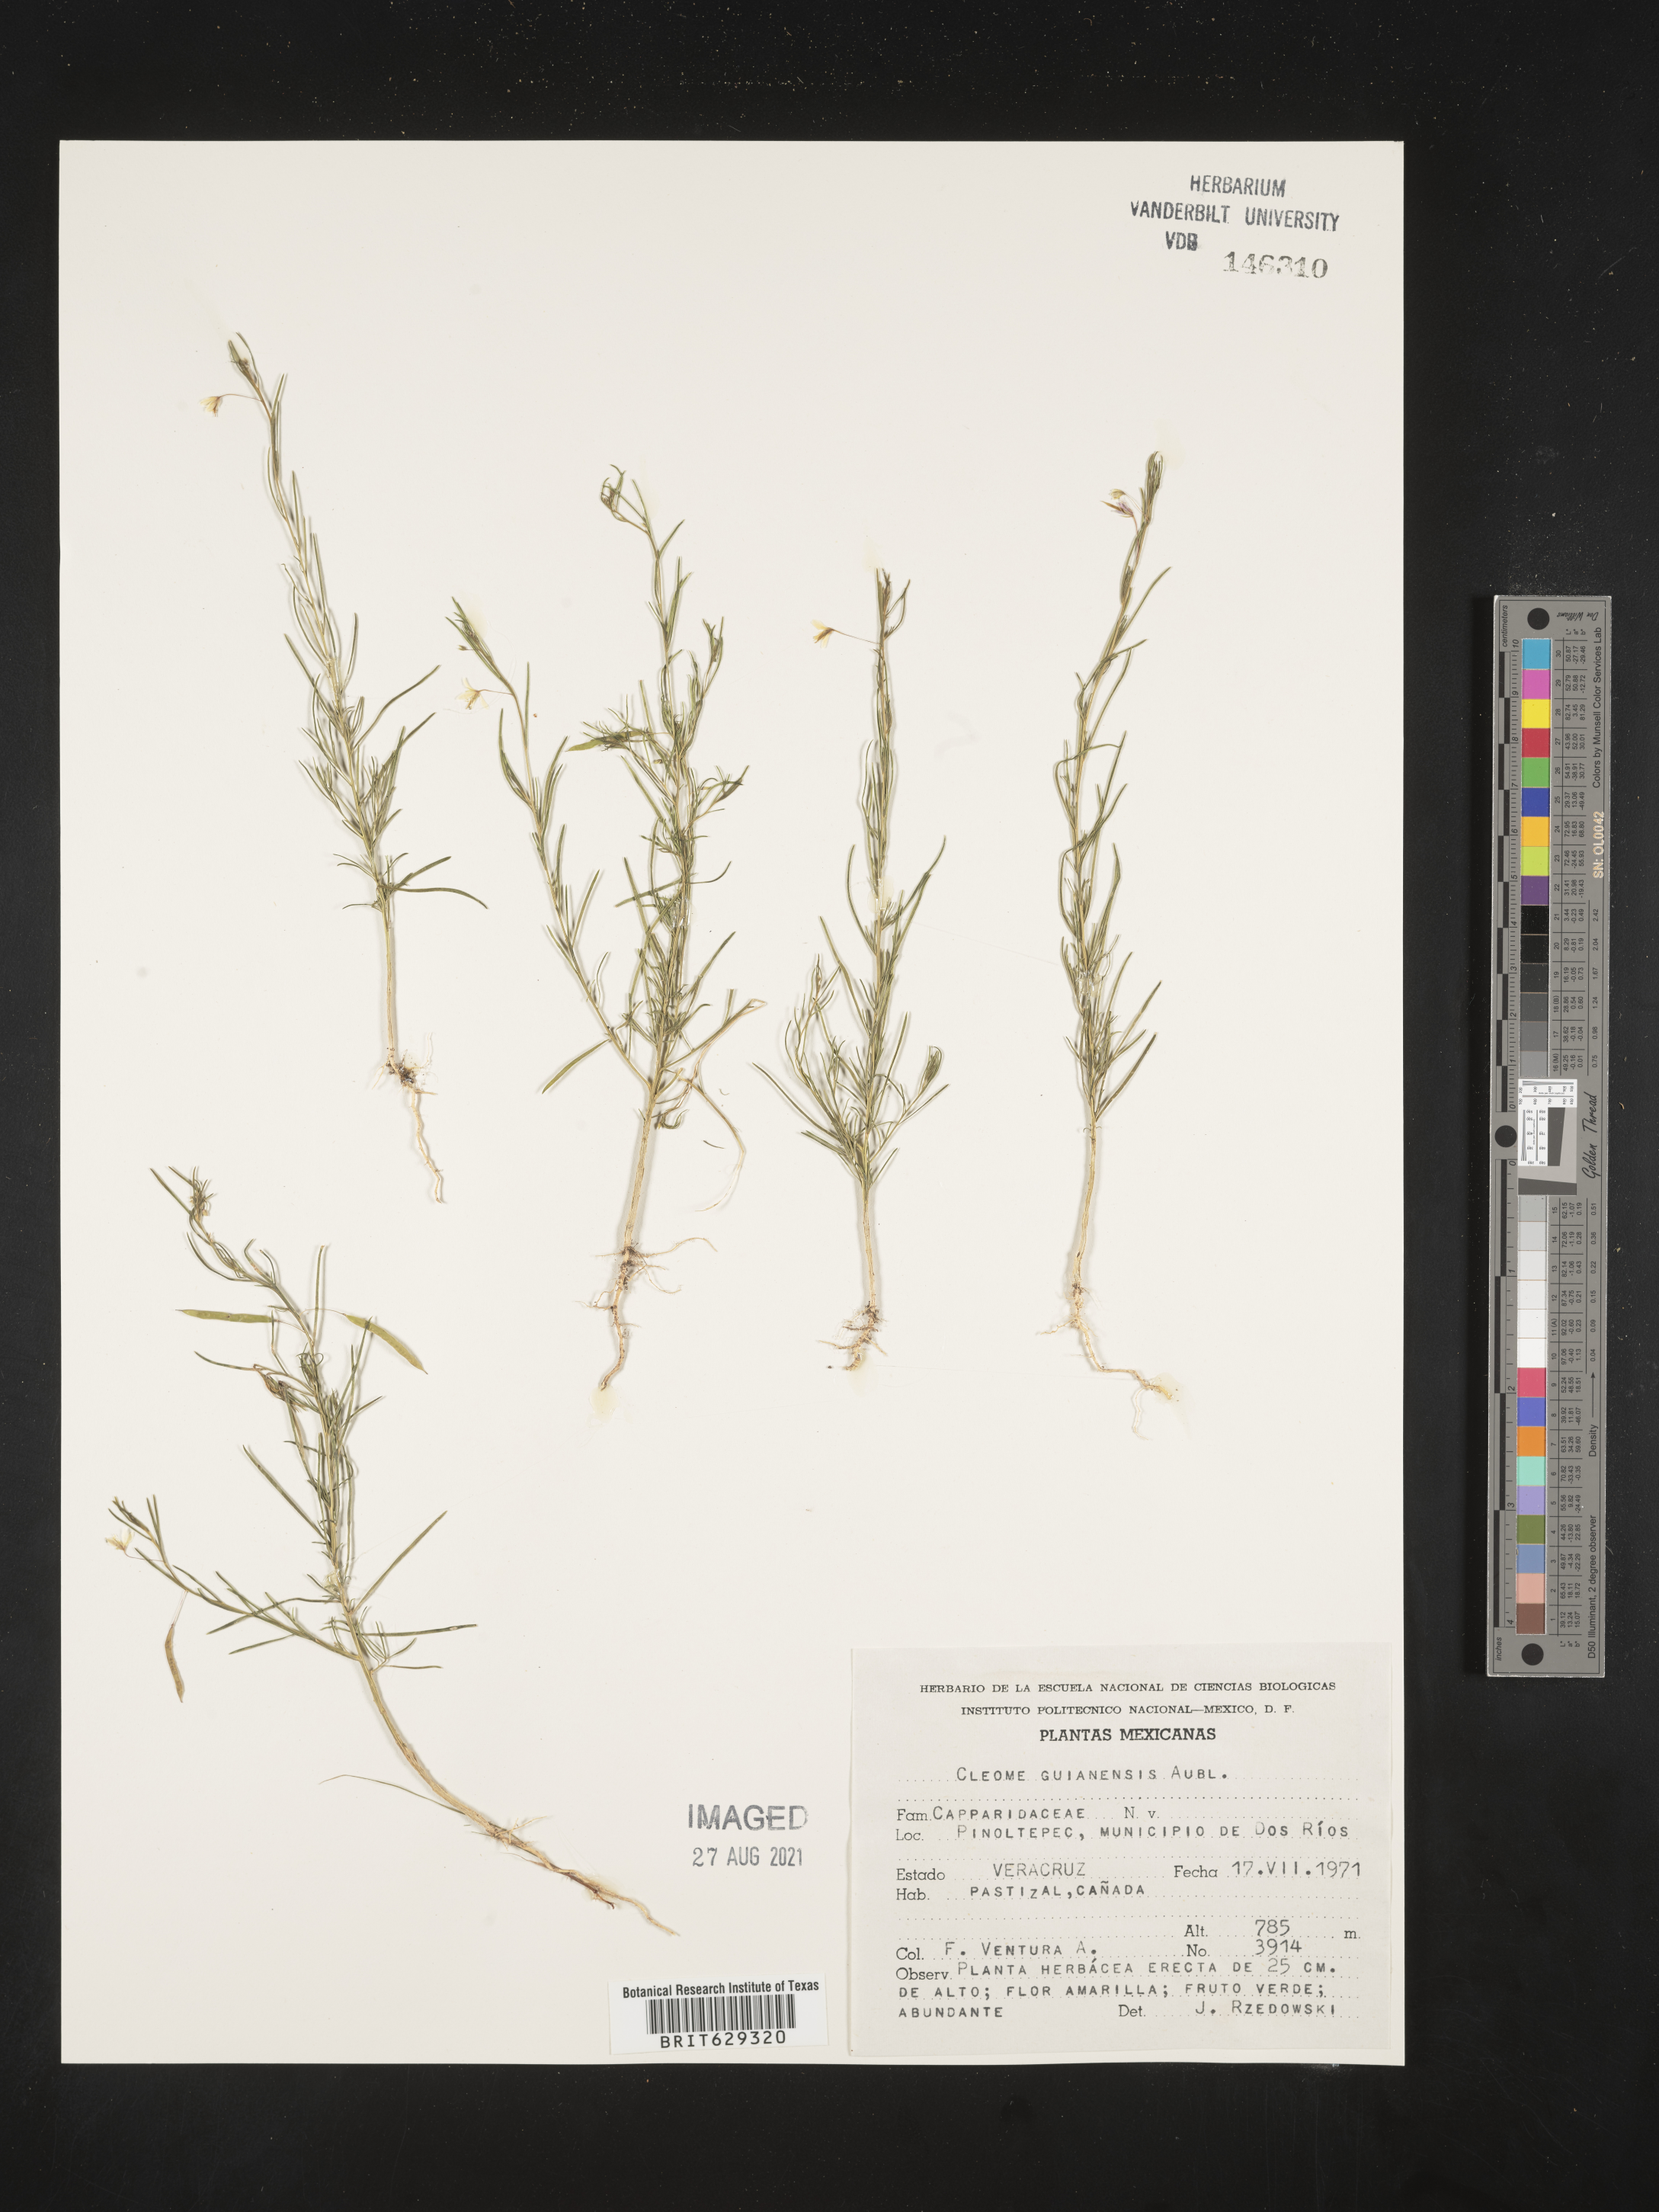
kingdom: Plantae
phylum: Tracheophyta
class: Magnoliopsida
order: Brassicales
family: Cleomaceae
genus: Cleome
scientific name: Cleome
